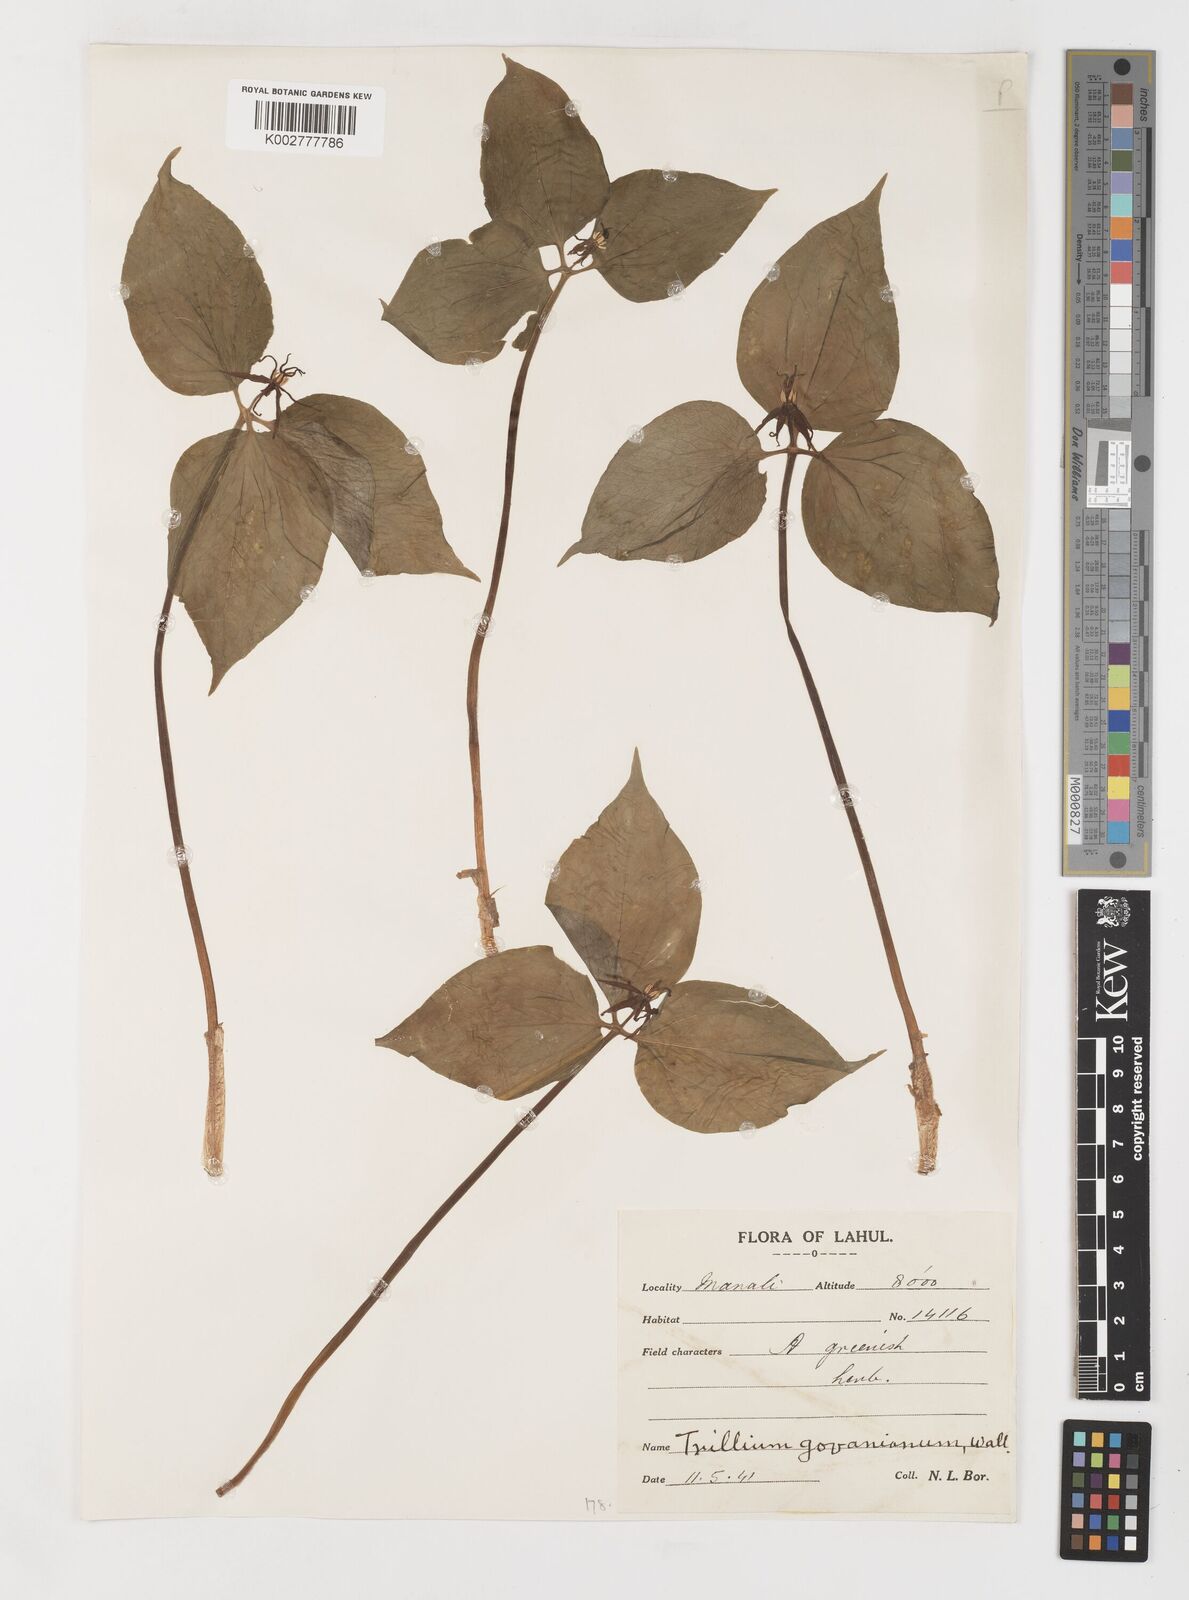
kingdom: Plantae
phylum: Tracheophyta
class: Liliopsida
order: Liliales
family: Melanthiaceae
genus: Trillium
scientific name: Trillium govanianum
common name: Himalayan trillium
